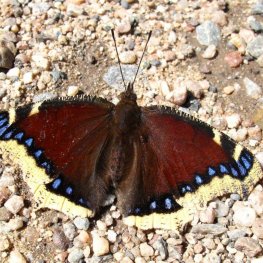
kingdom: Animalia
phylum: Arthropoda
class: Insecta
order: Lepidoptera
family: Nymphalidae
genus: Nymphalis
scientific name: Nymphalis antiopa
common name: Mourning Cloak
